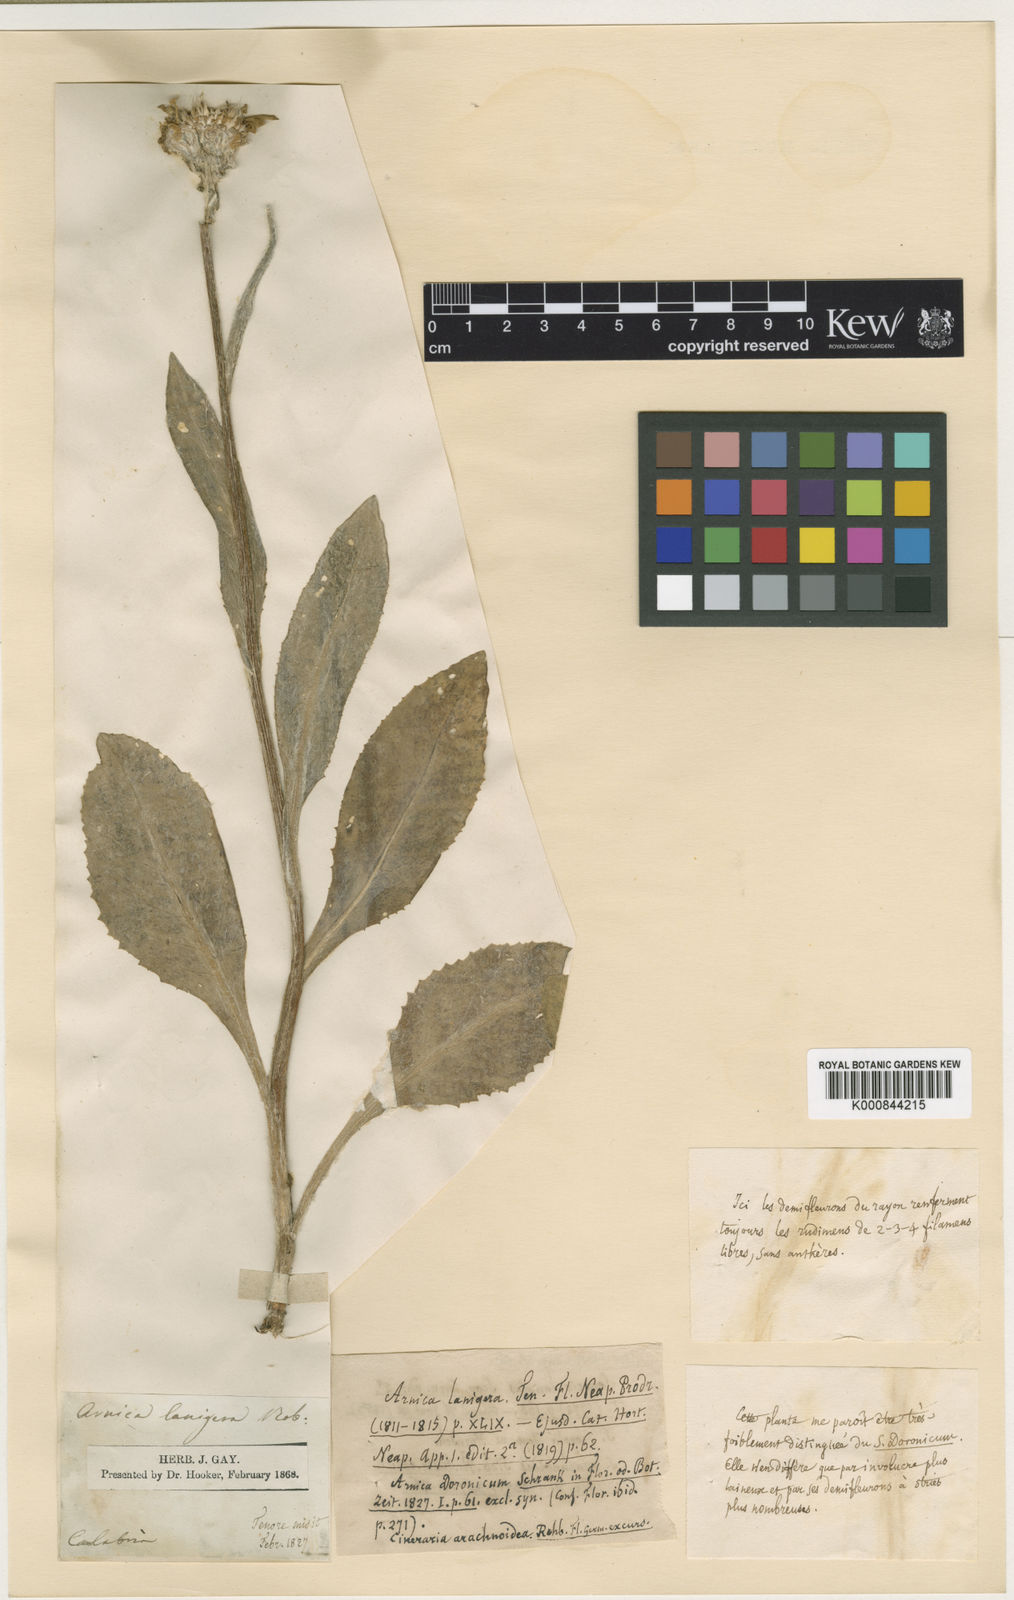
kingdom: Plantae
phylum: Tracheophyta
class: Magnoliopsida
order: Asterales
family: Asteraceae
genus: Monticalia
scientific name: Monticalia ledifolia
